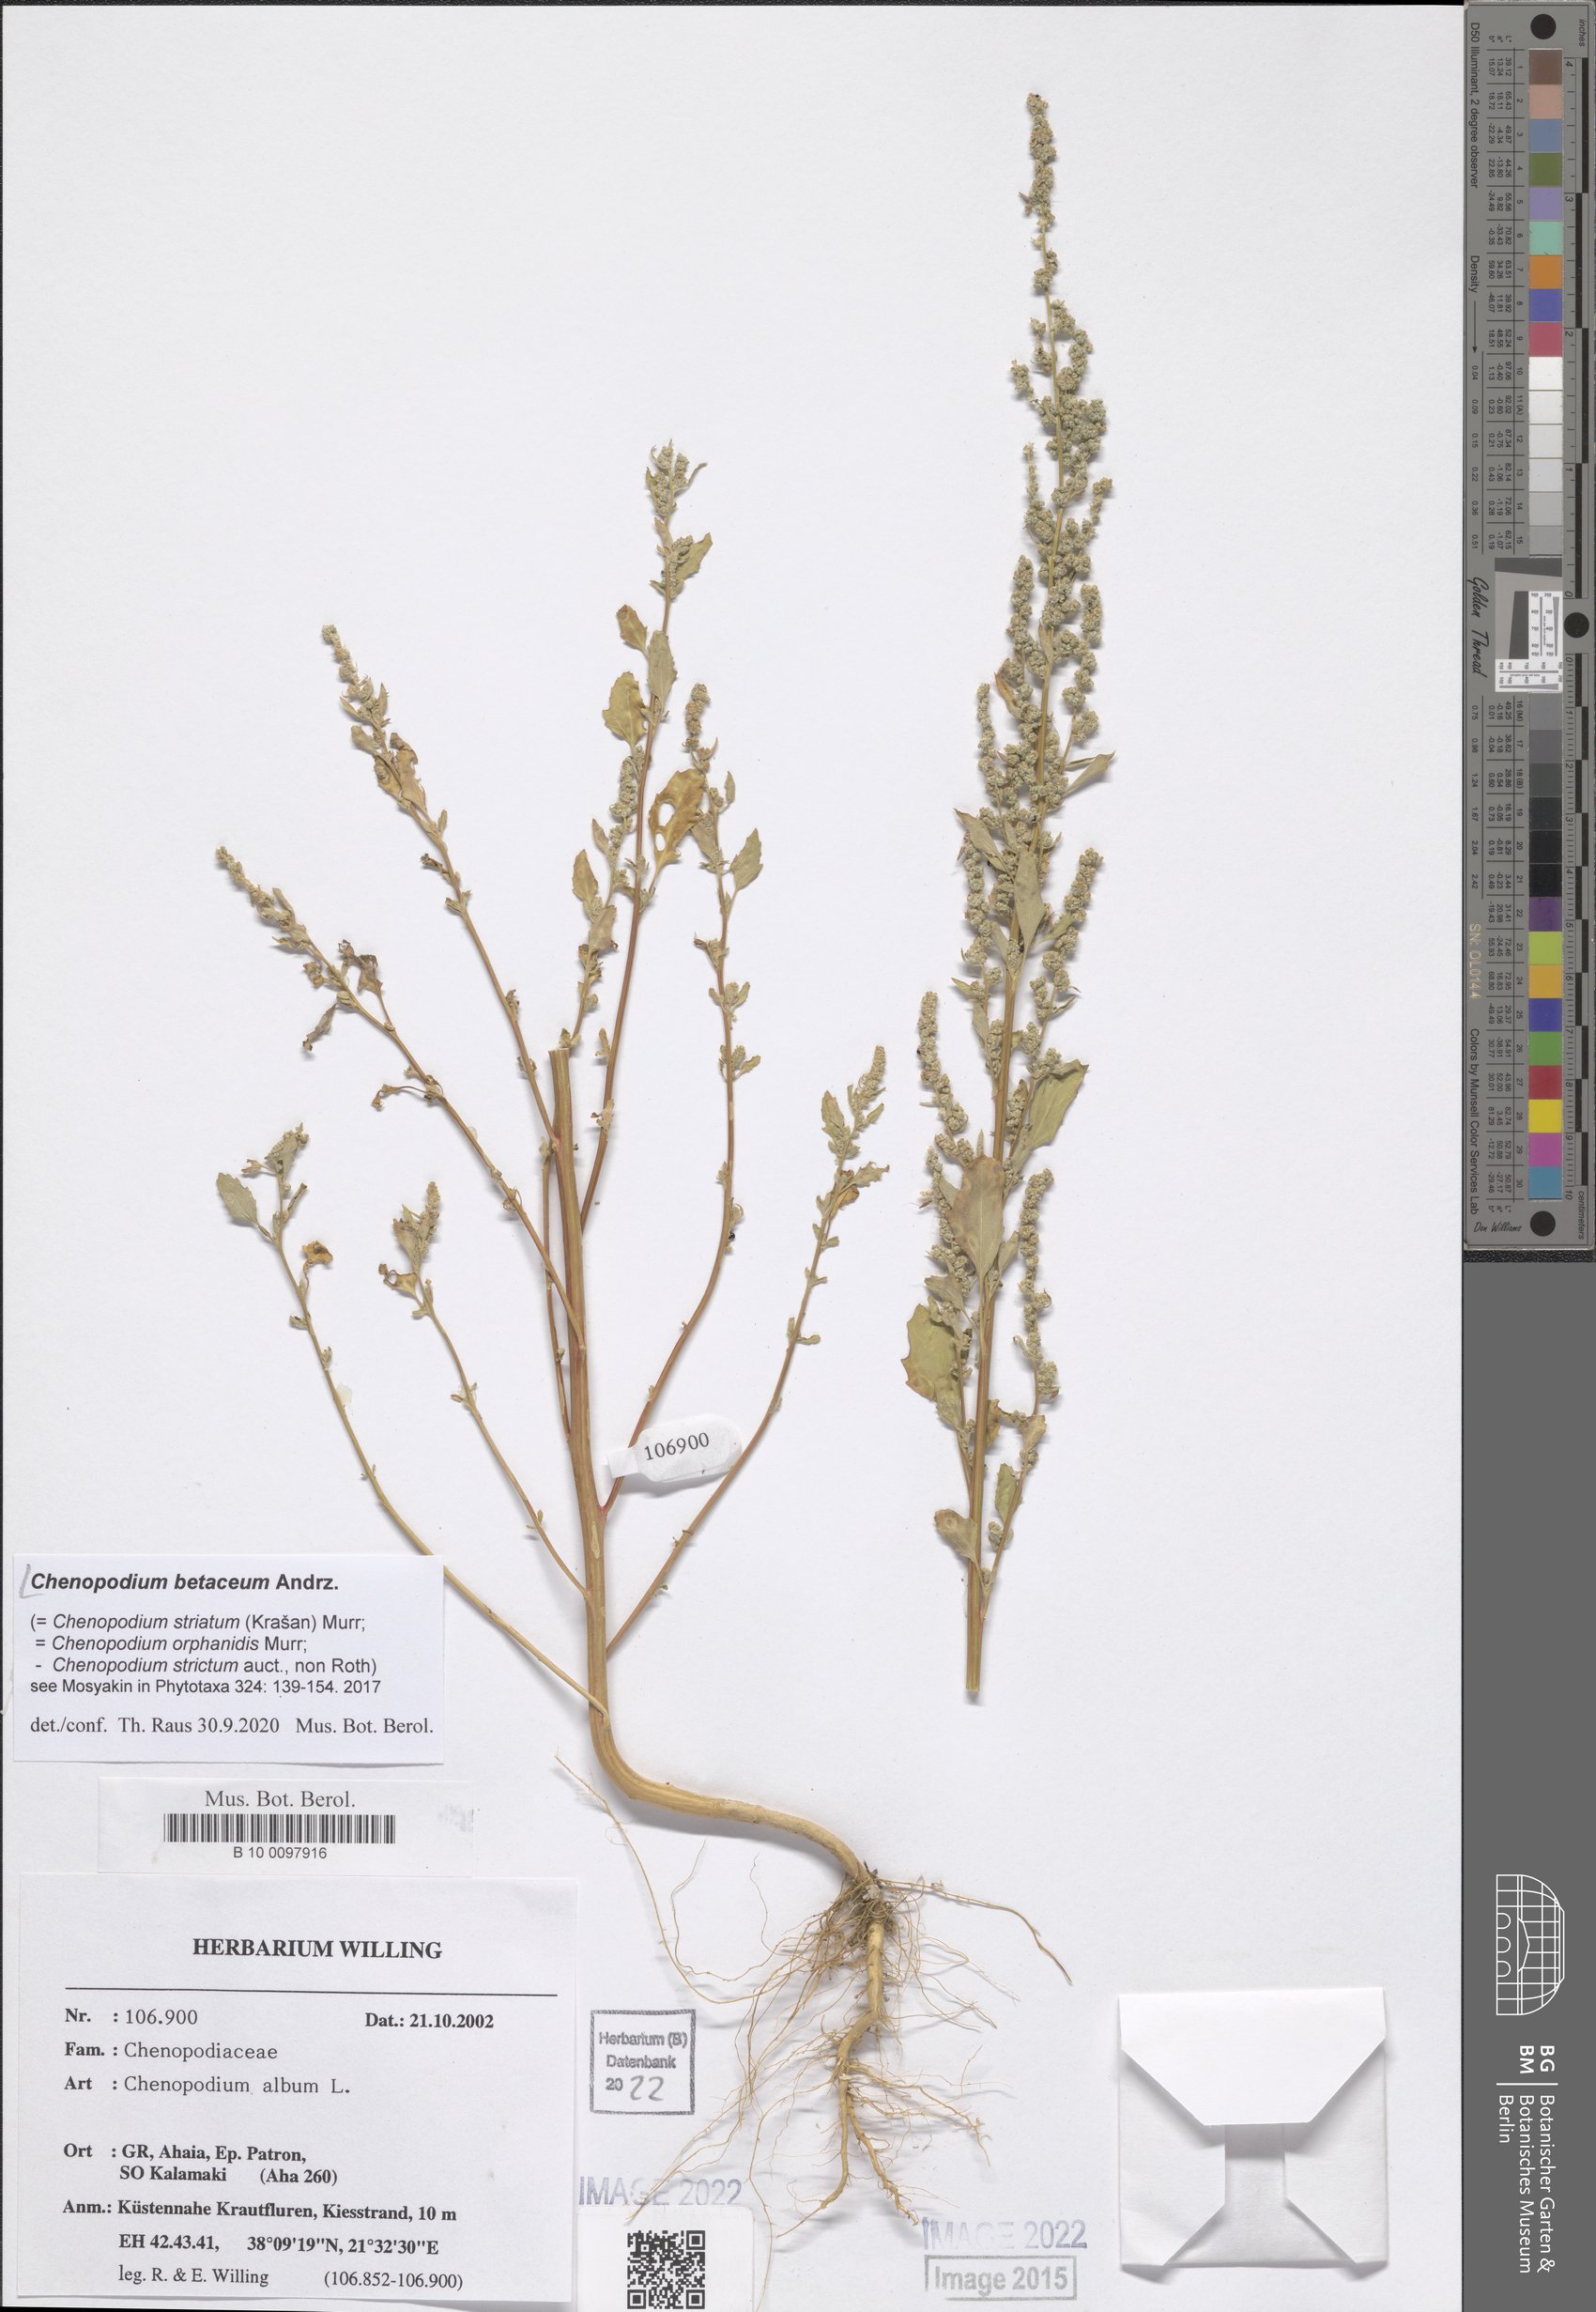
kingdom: Plantae
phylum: Tracheophyta
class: Magnoliopsida
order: Caryophyllales
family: Amaranthaceae
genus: Chenopodium
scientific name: Chenopodium betaceum
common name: Striped goosefoot
